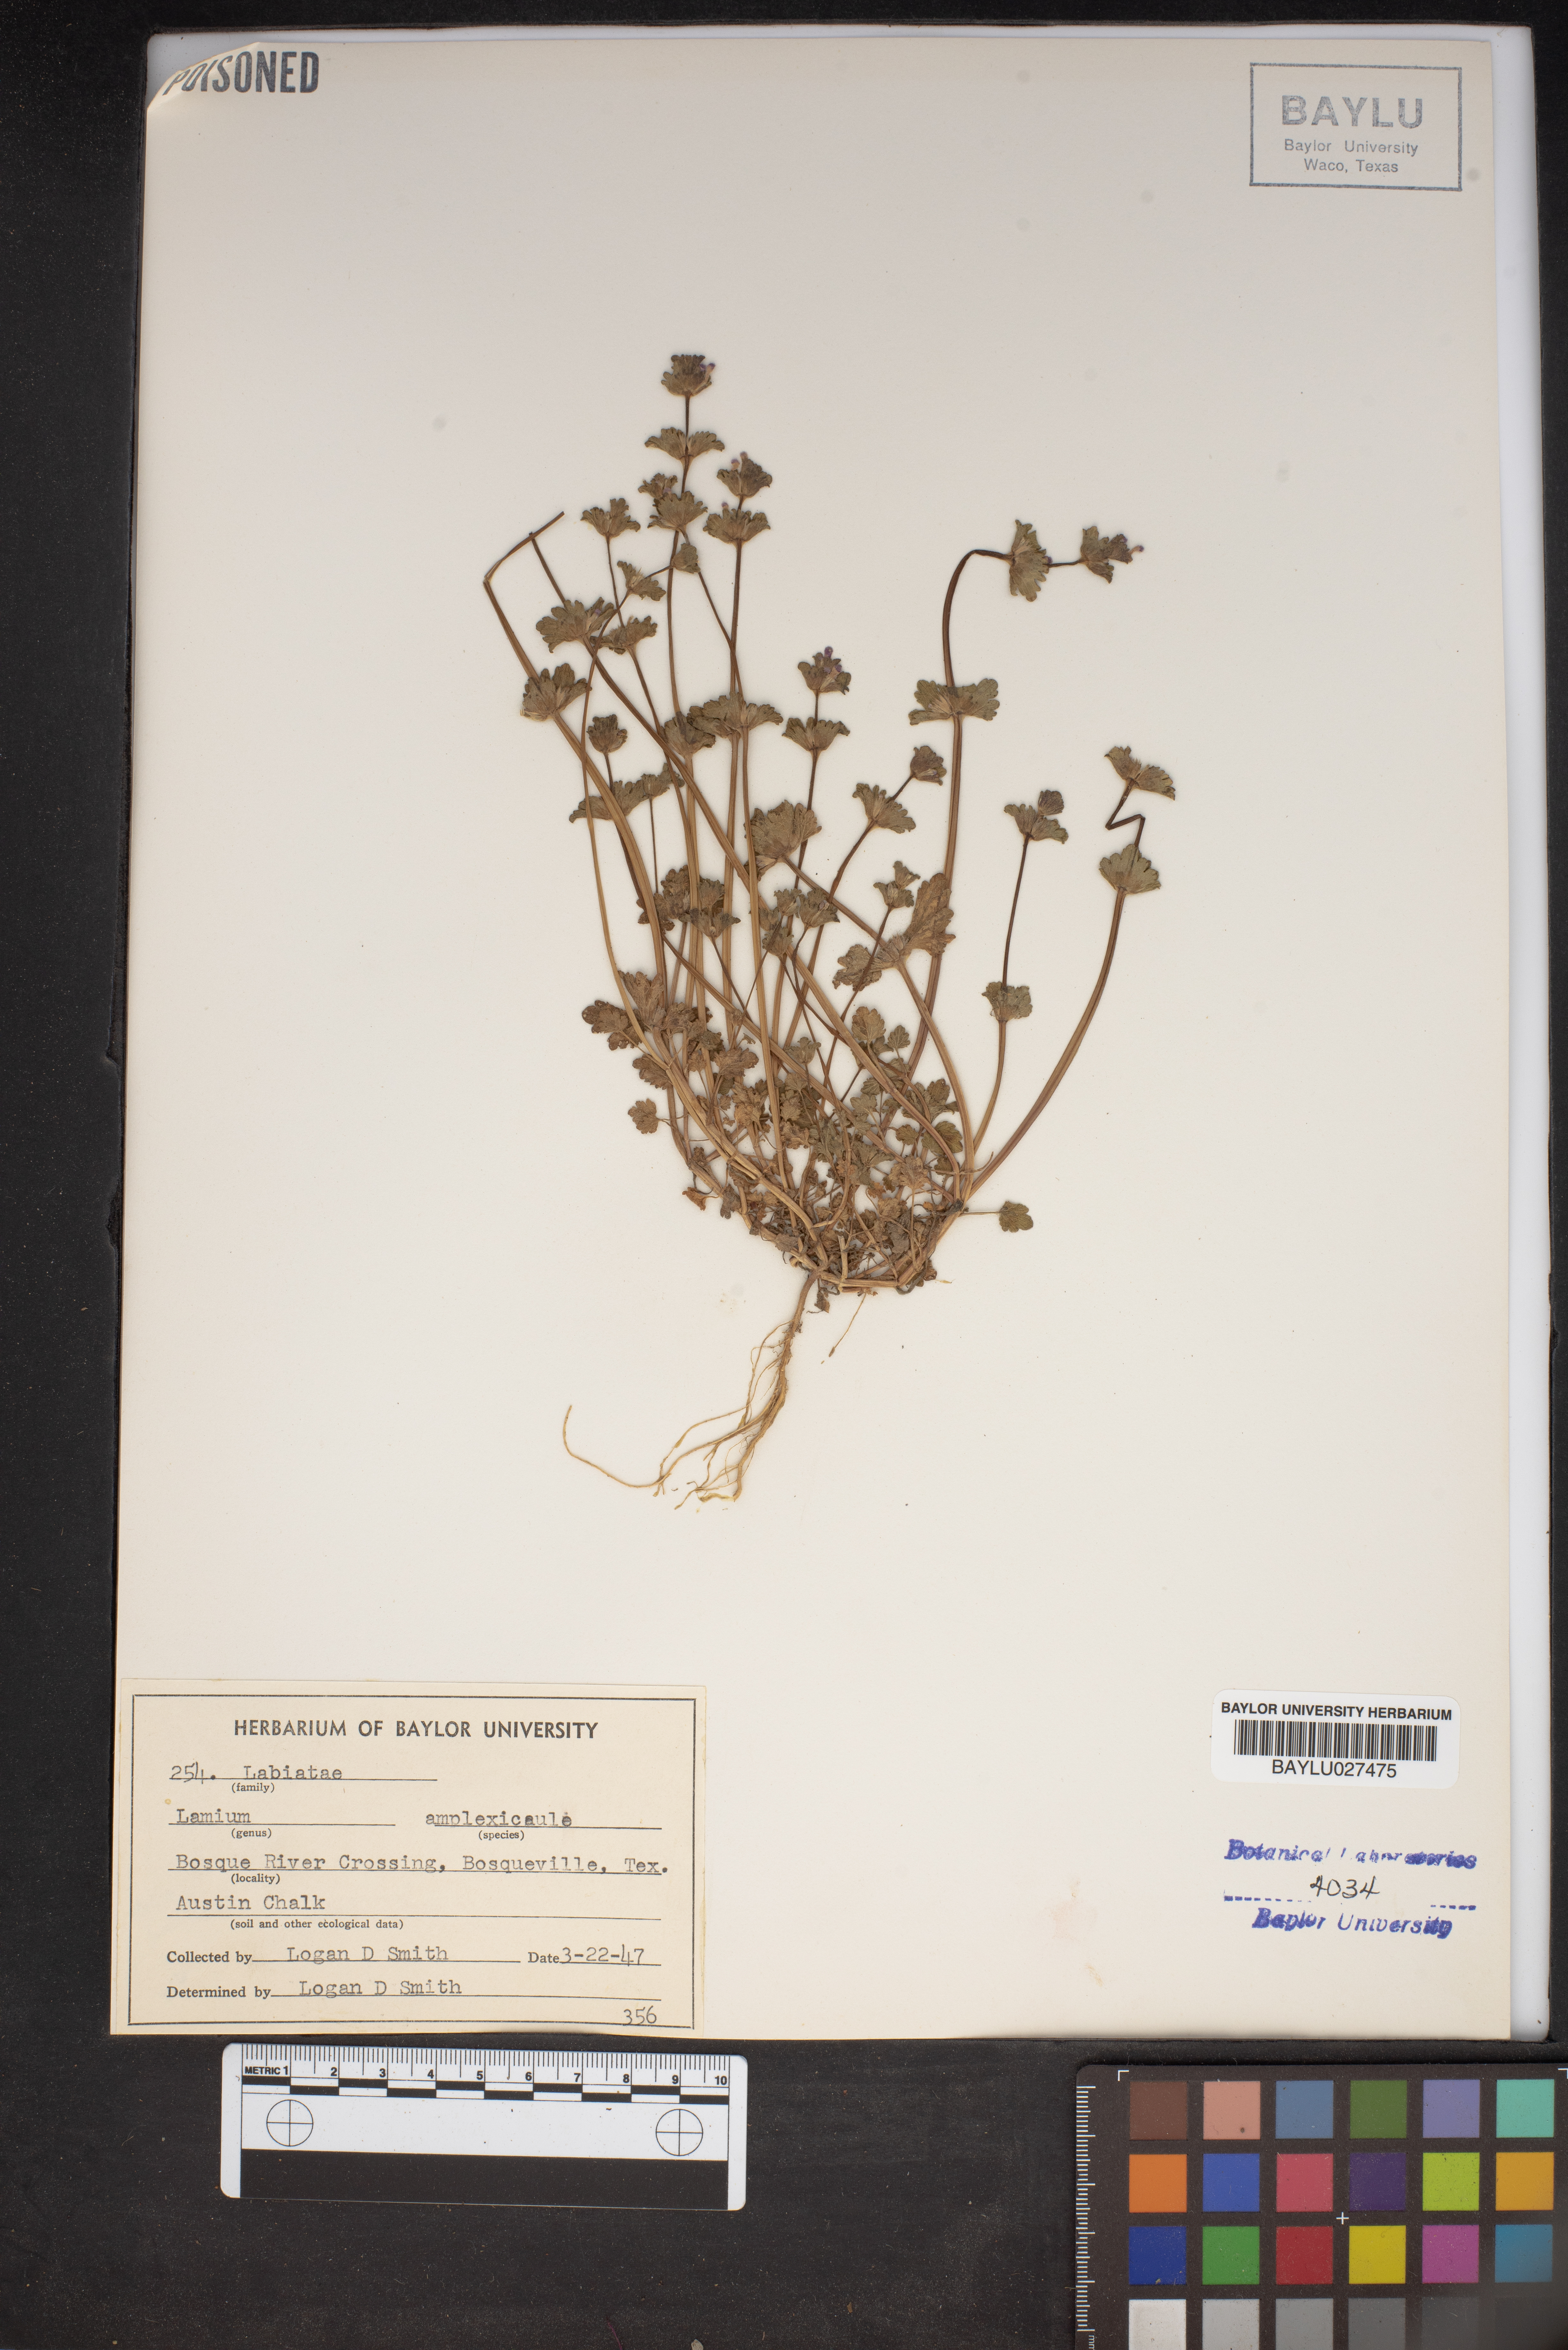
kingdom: Plantae
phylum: Tracheophyta
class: Magnoliopsida
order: Lamiales
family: Lamiaceae
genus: Lamium
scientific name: Lamium amplexicaule
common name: Henbit dead-nettle
